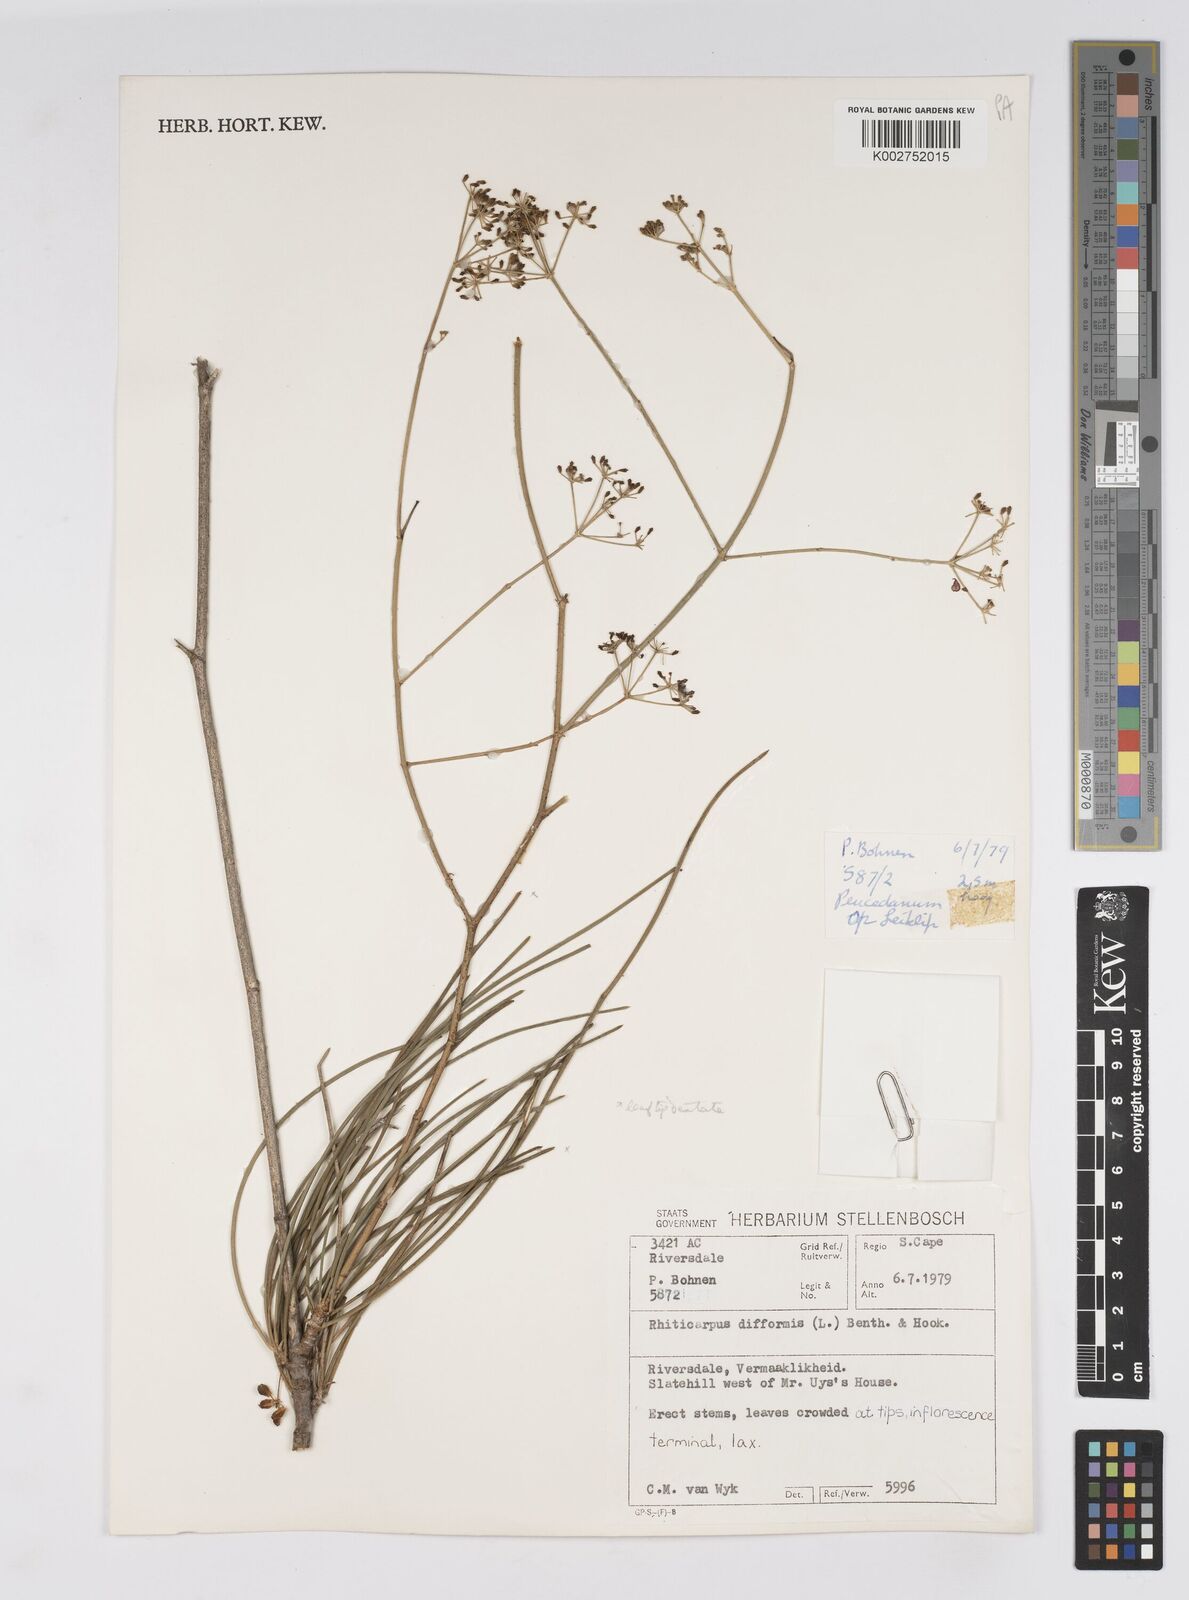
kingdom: Plantae
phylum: Tracheophyta
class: Magnoliopsida
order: Apiales
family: Apiaceae
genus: Anginon
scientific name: Anginon difforme
